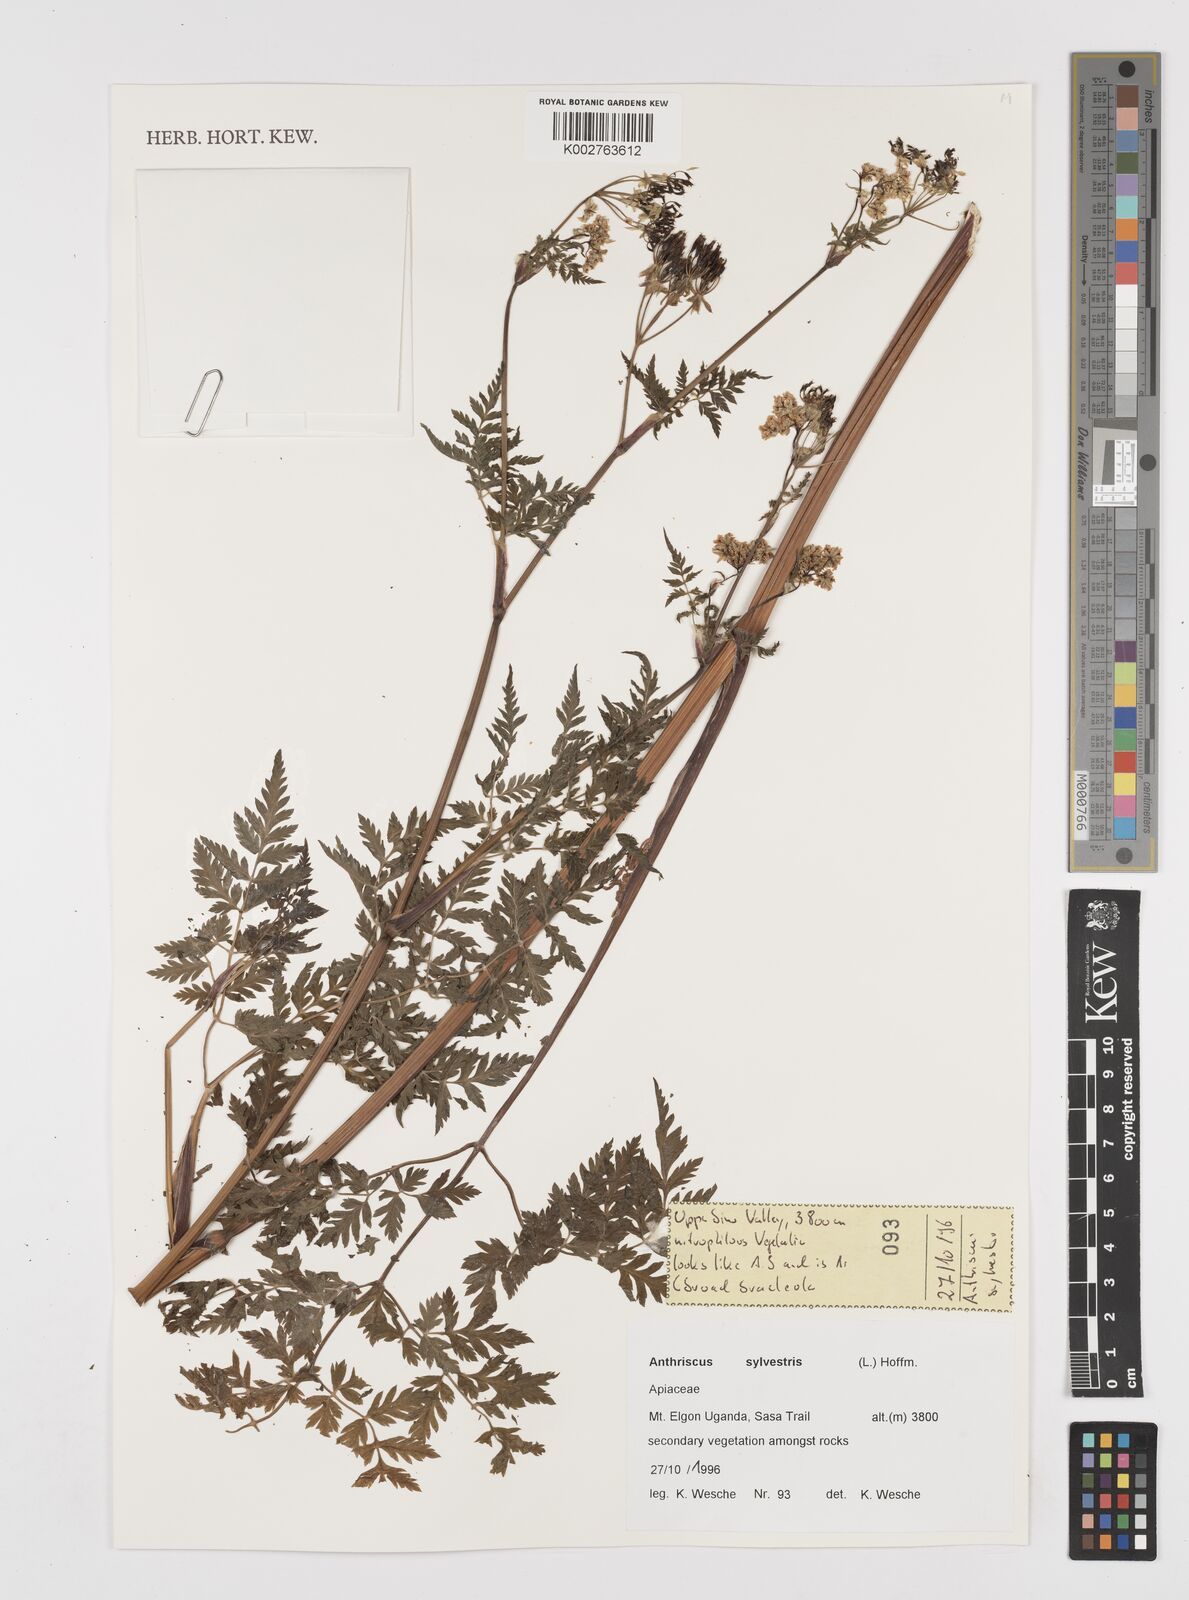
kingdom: Plantae
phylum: Tracheophyta
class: Magnoliopsida
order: Apiales
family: Apiaceae
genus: Anthriscus
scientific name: Anthriscus sylvestris
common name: Cow parsley
